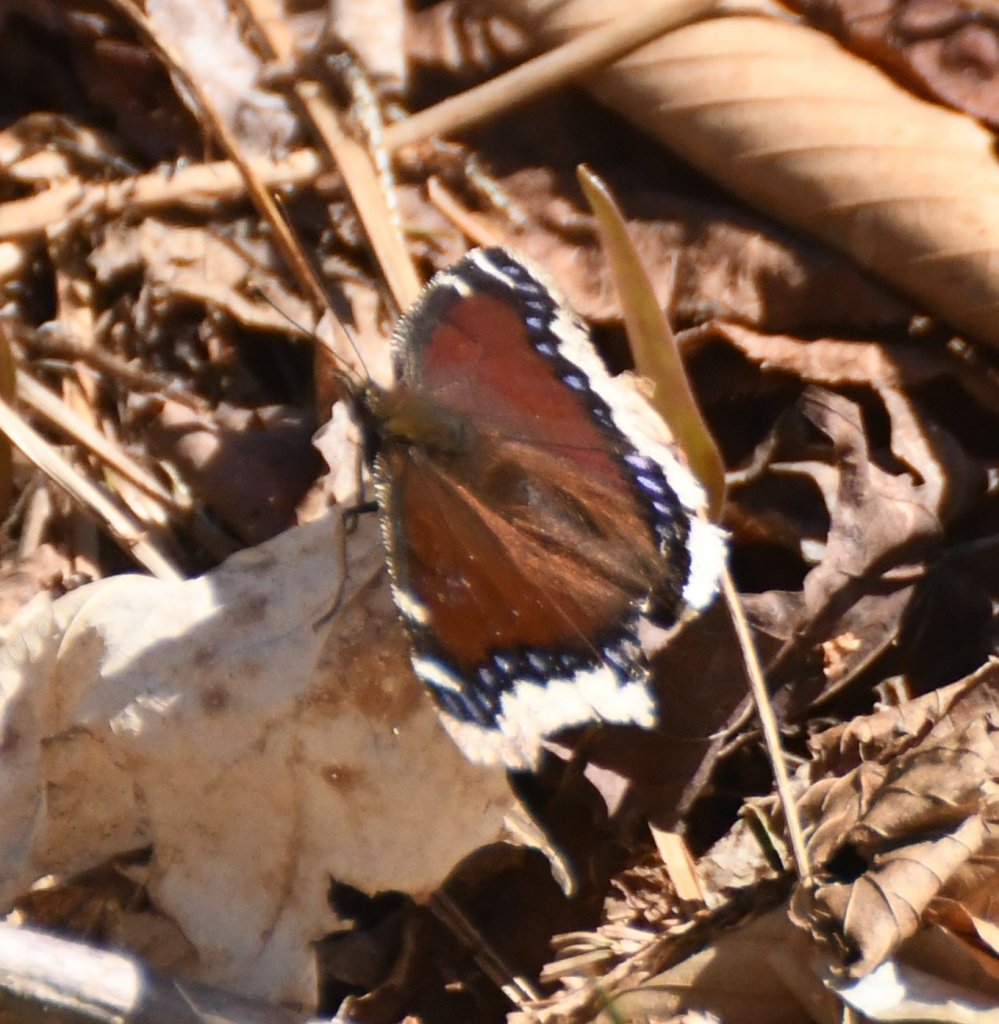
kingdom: Animalia
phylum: Arthropoda
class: Insecta
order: Lepidoptera
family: Nymphalidae
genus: Nymphalis
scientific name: Nymphalis antiopa
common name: Mourning Cloak
